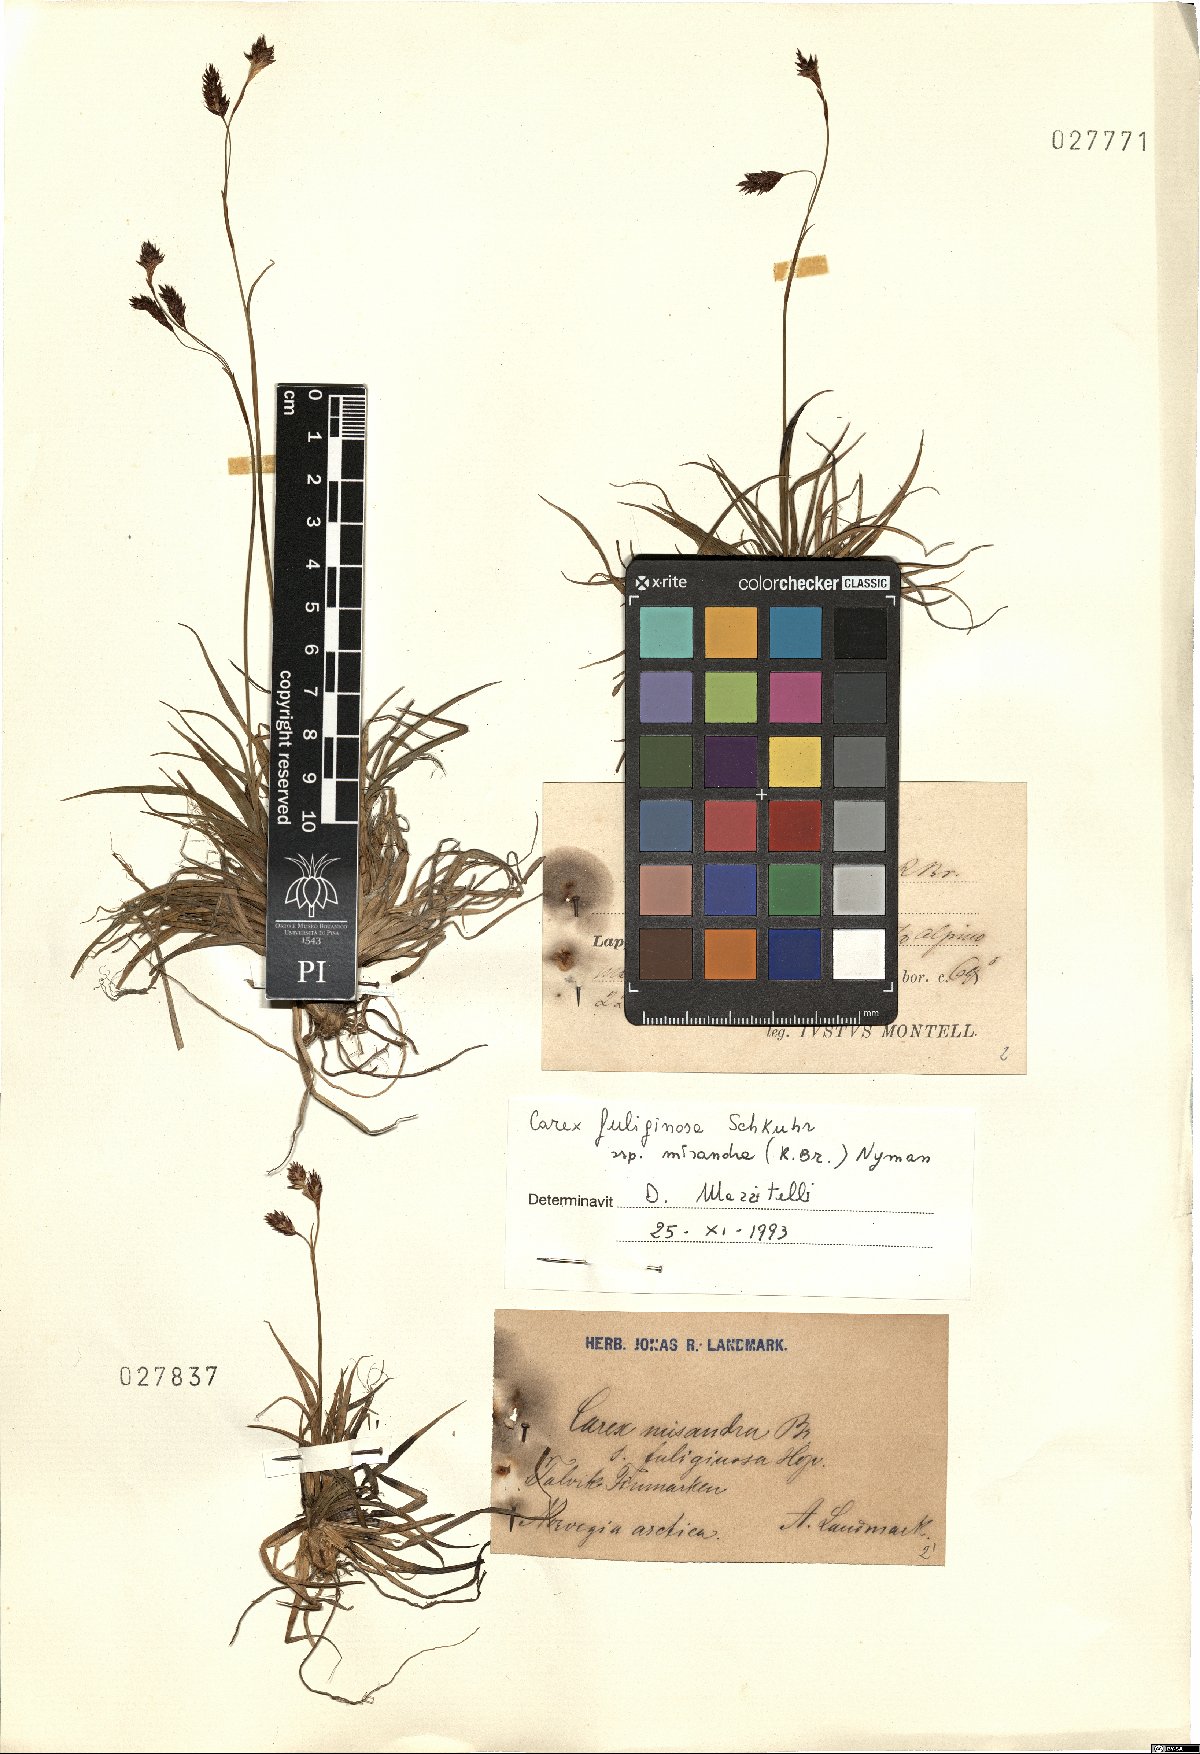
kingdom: Plantae
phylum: Tracheophyta
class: Liliopsida
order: Poales
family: Cyperaceae
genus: Carex
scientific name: Carex fuliginosa
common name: Few-flowered sedge
